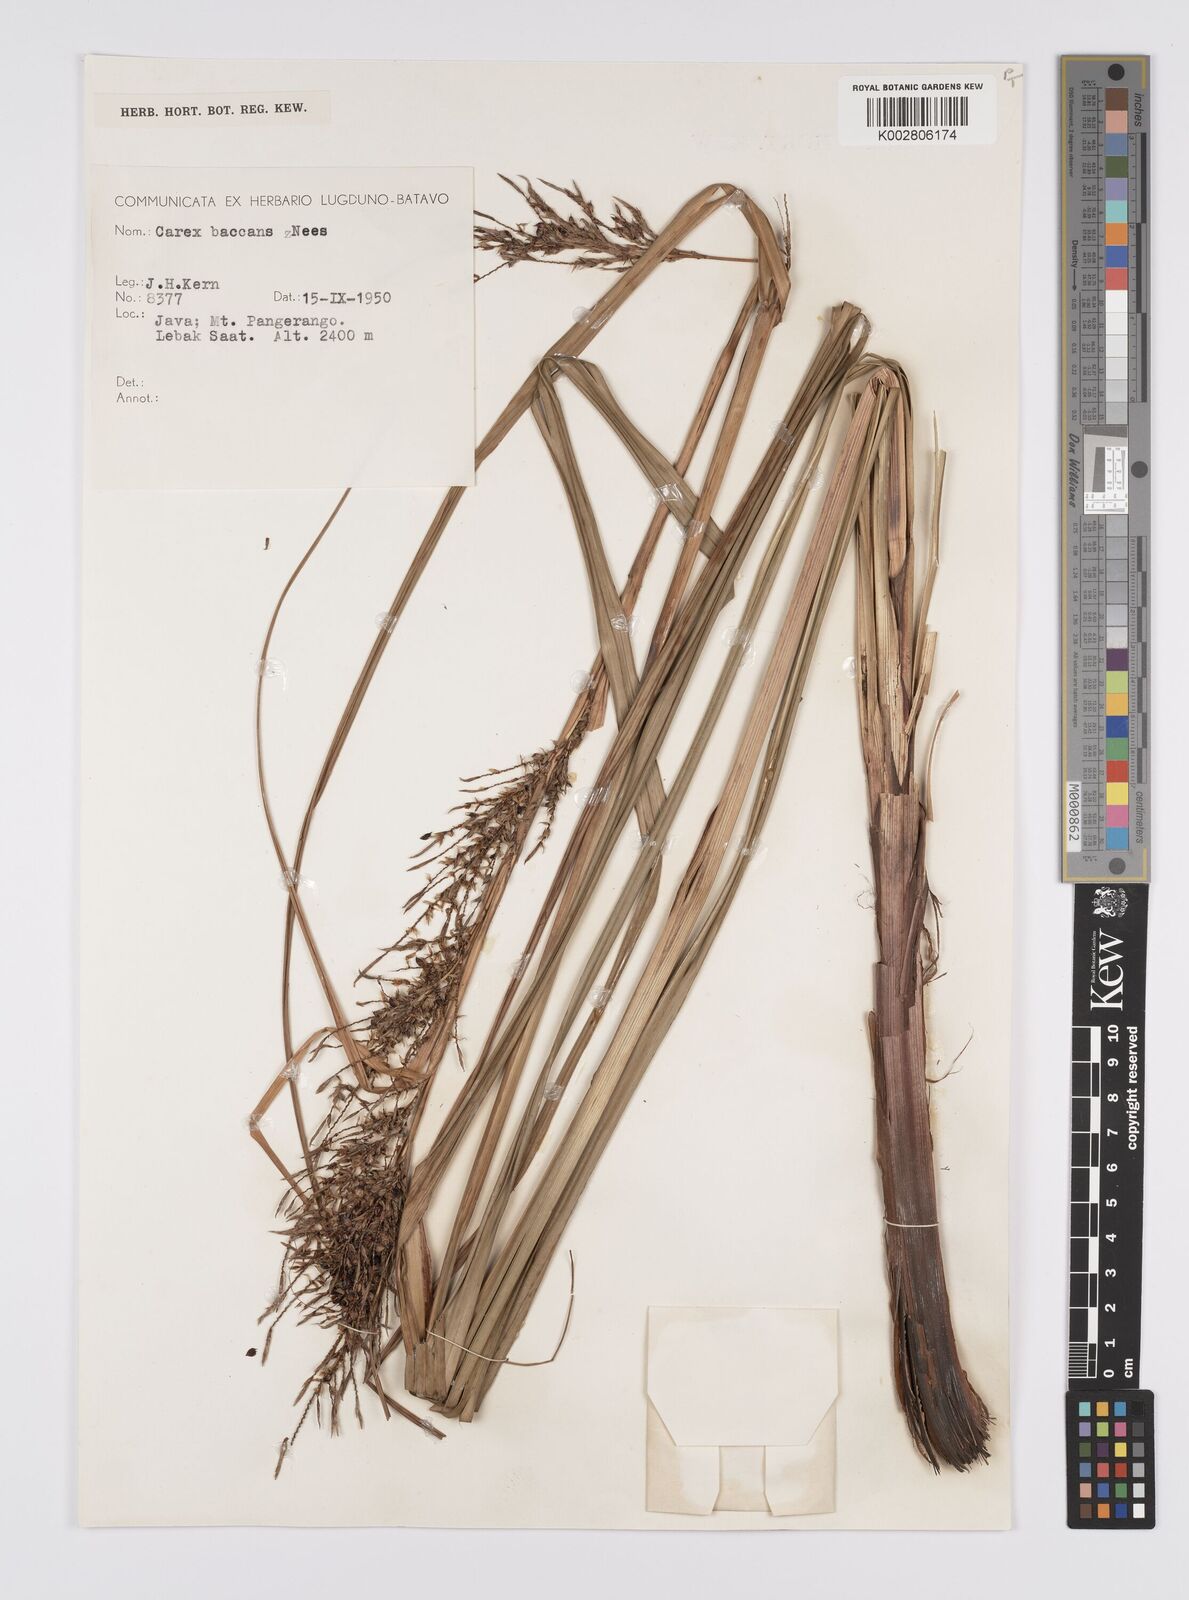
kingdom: Plantae
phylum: Tracheophyta
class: Liliopsida
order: Poales
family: Cyperaceae
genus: Carex
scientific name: Carex baccans
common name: Crimson seeded sedge
